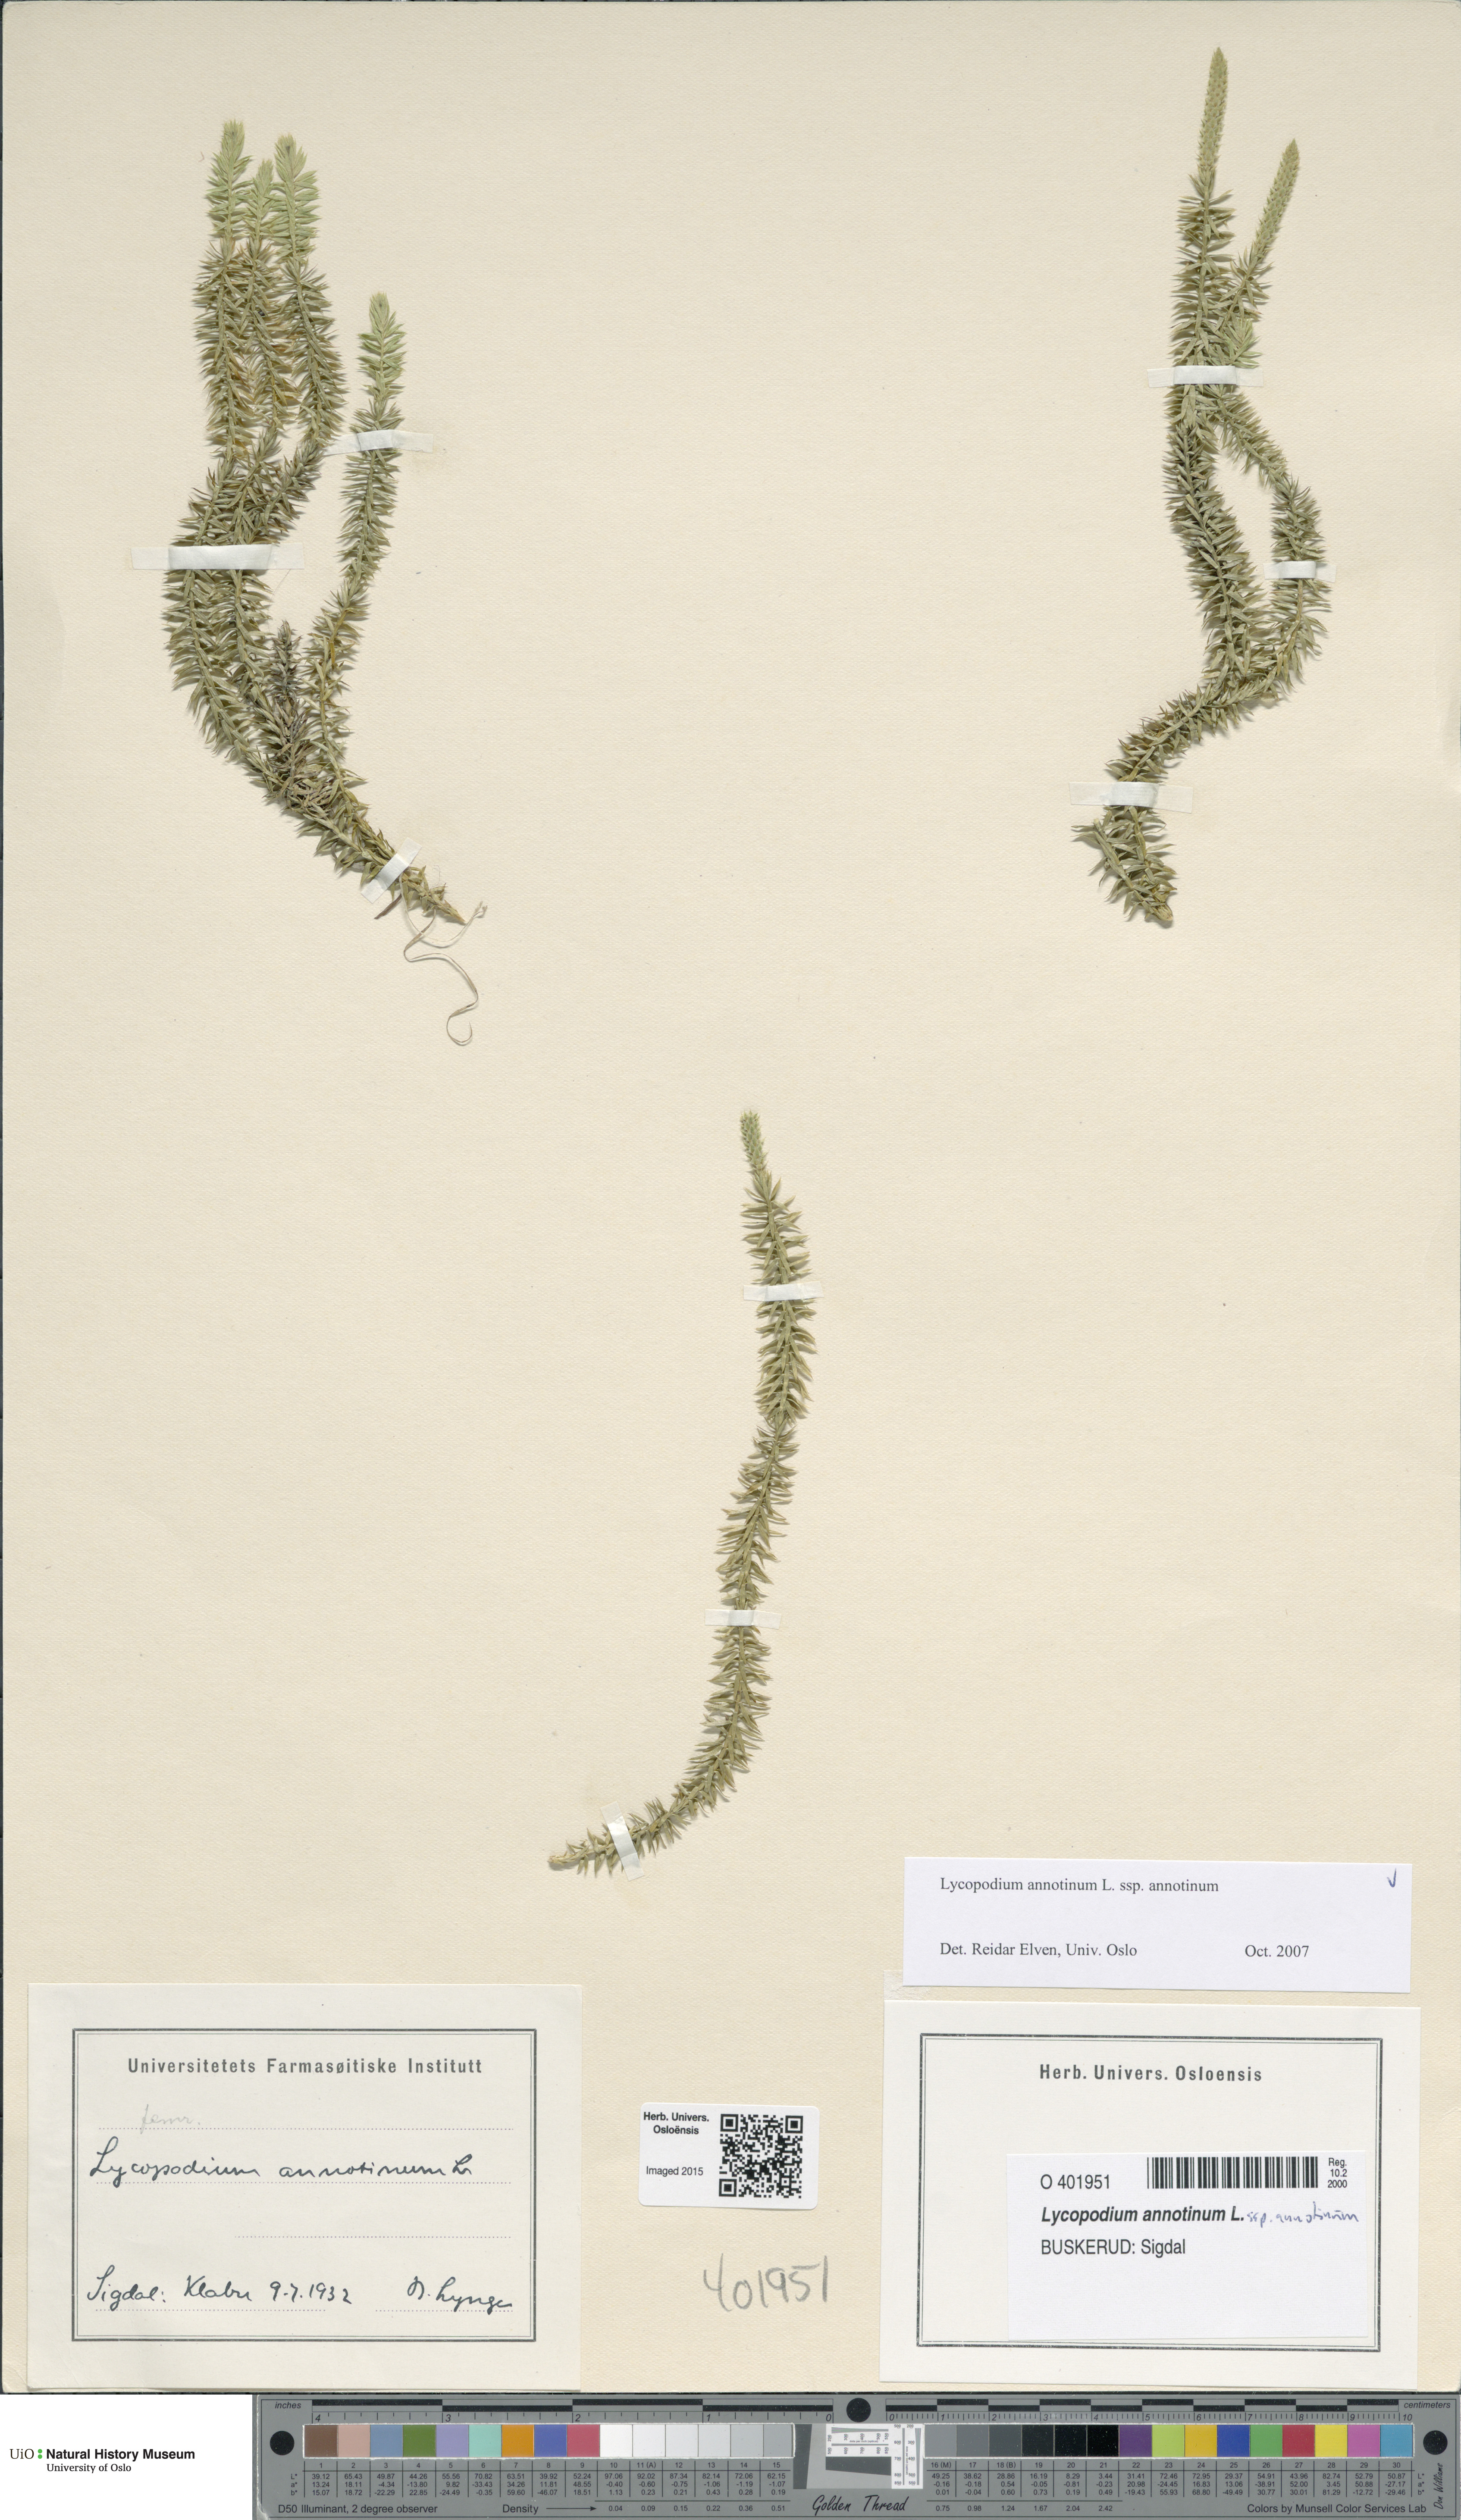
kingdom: Plantae
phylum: Tracheophyta
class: Lycopodiopsida
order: Lycopodiales
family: Lycopodiaceae
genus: Spinulum
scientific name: Spinulum annotinum
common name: Interrupted club-moss
